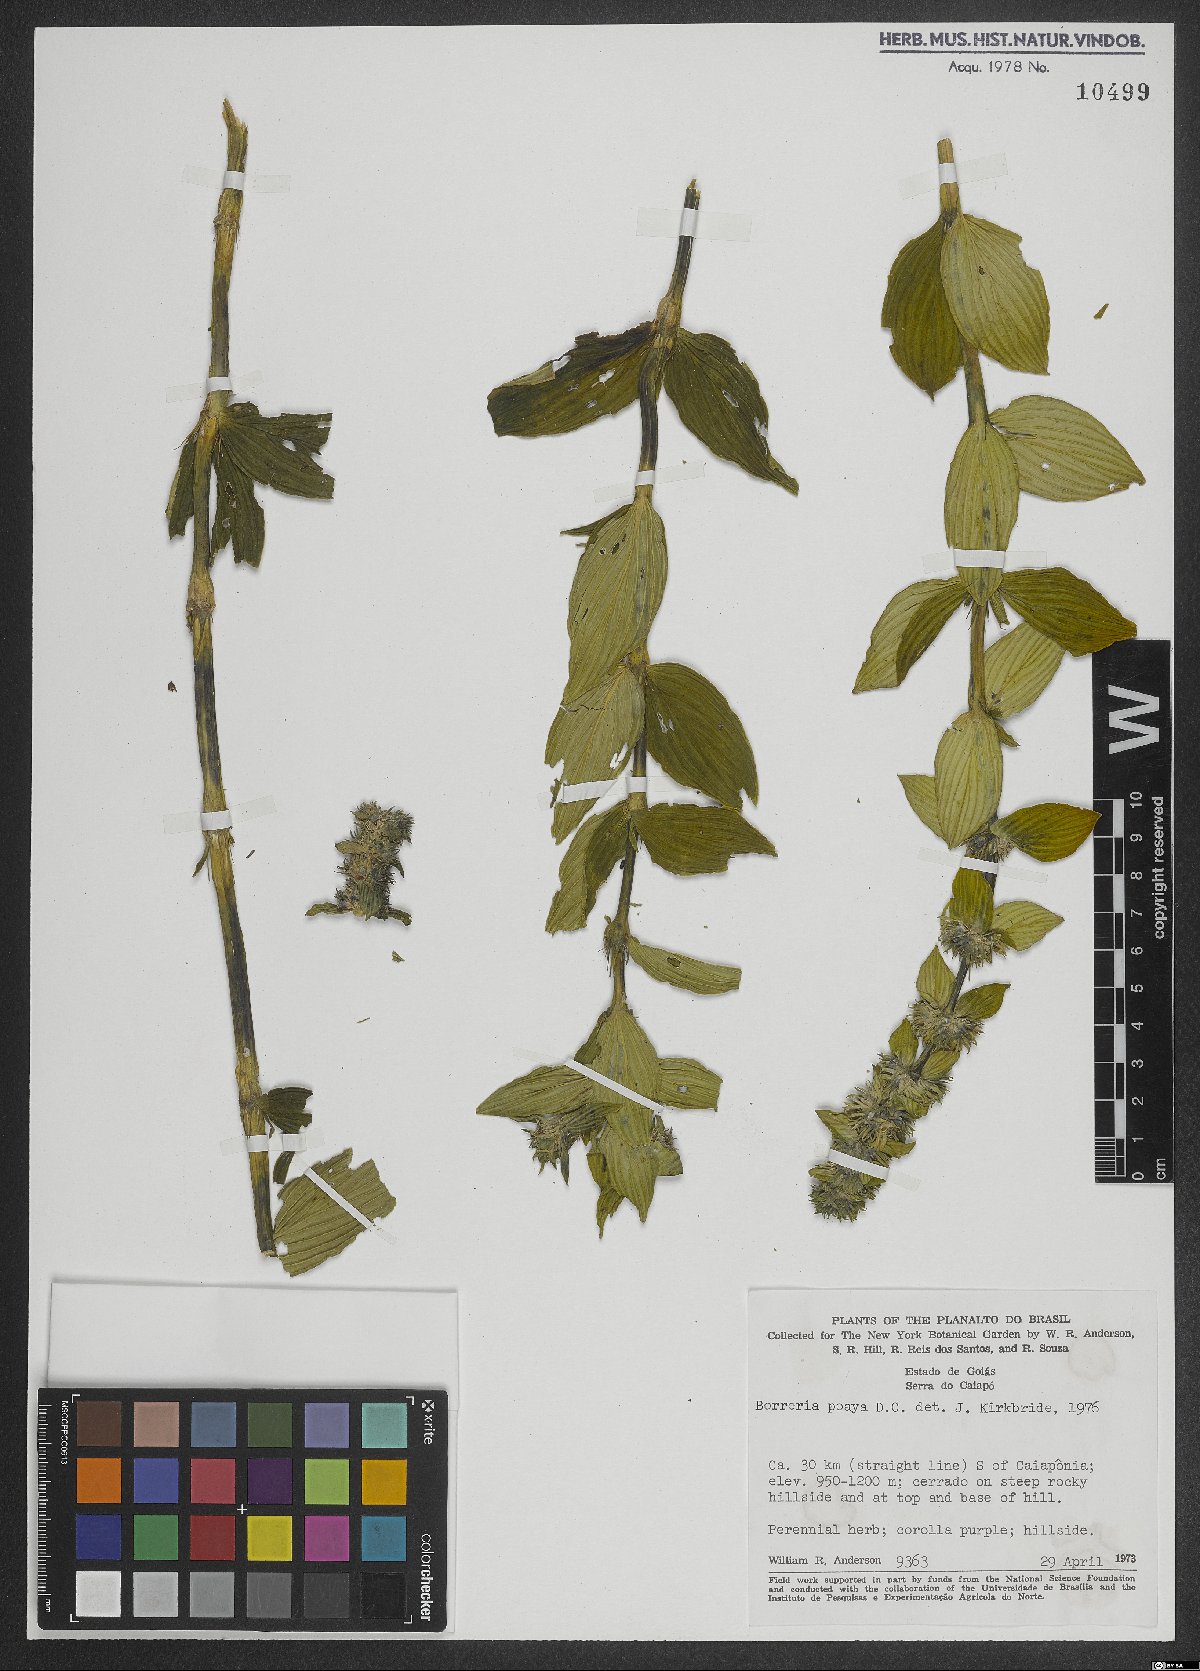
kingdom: Plantae
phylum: Tracheophyta
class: Magnoliopsida
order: Gentianales
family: Rubiaceae
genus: Spermacoce
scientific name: Spermacoce poaya
